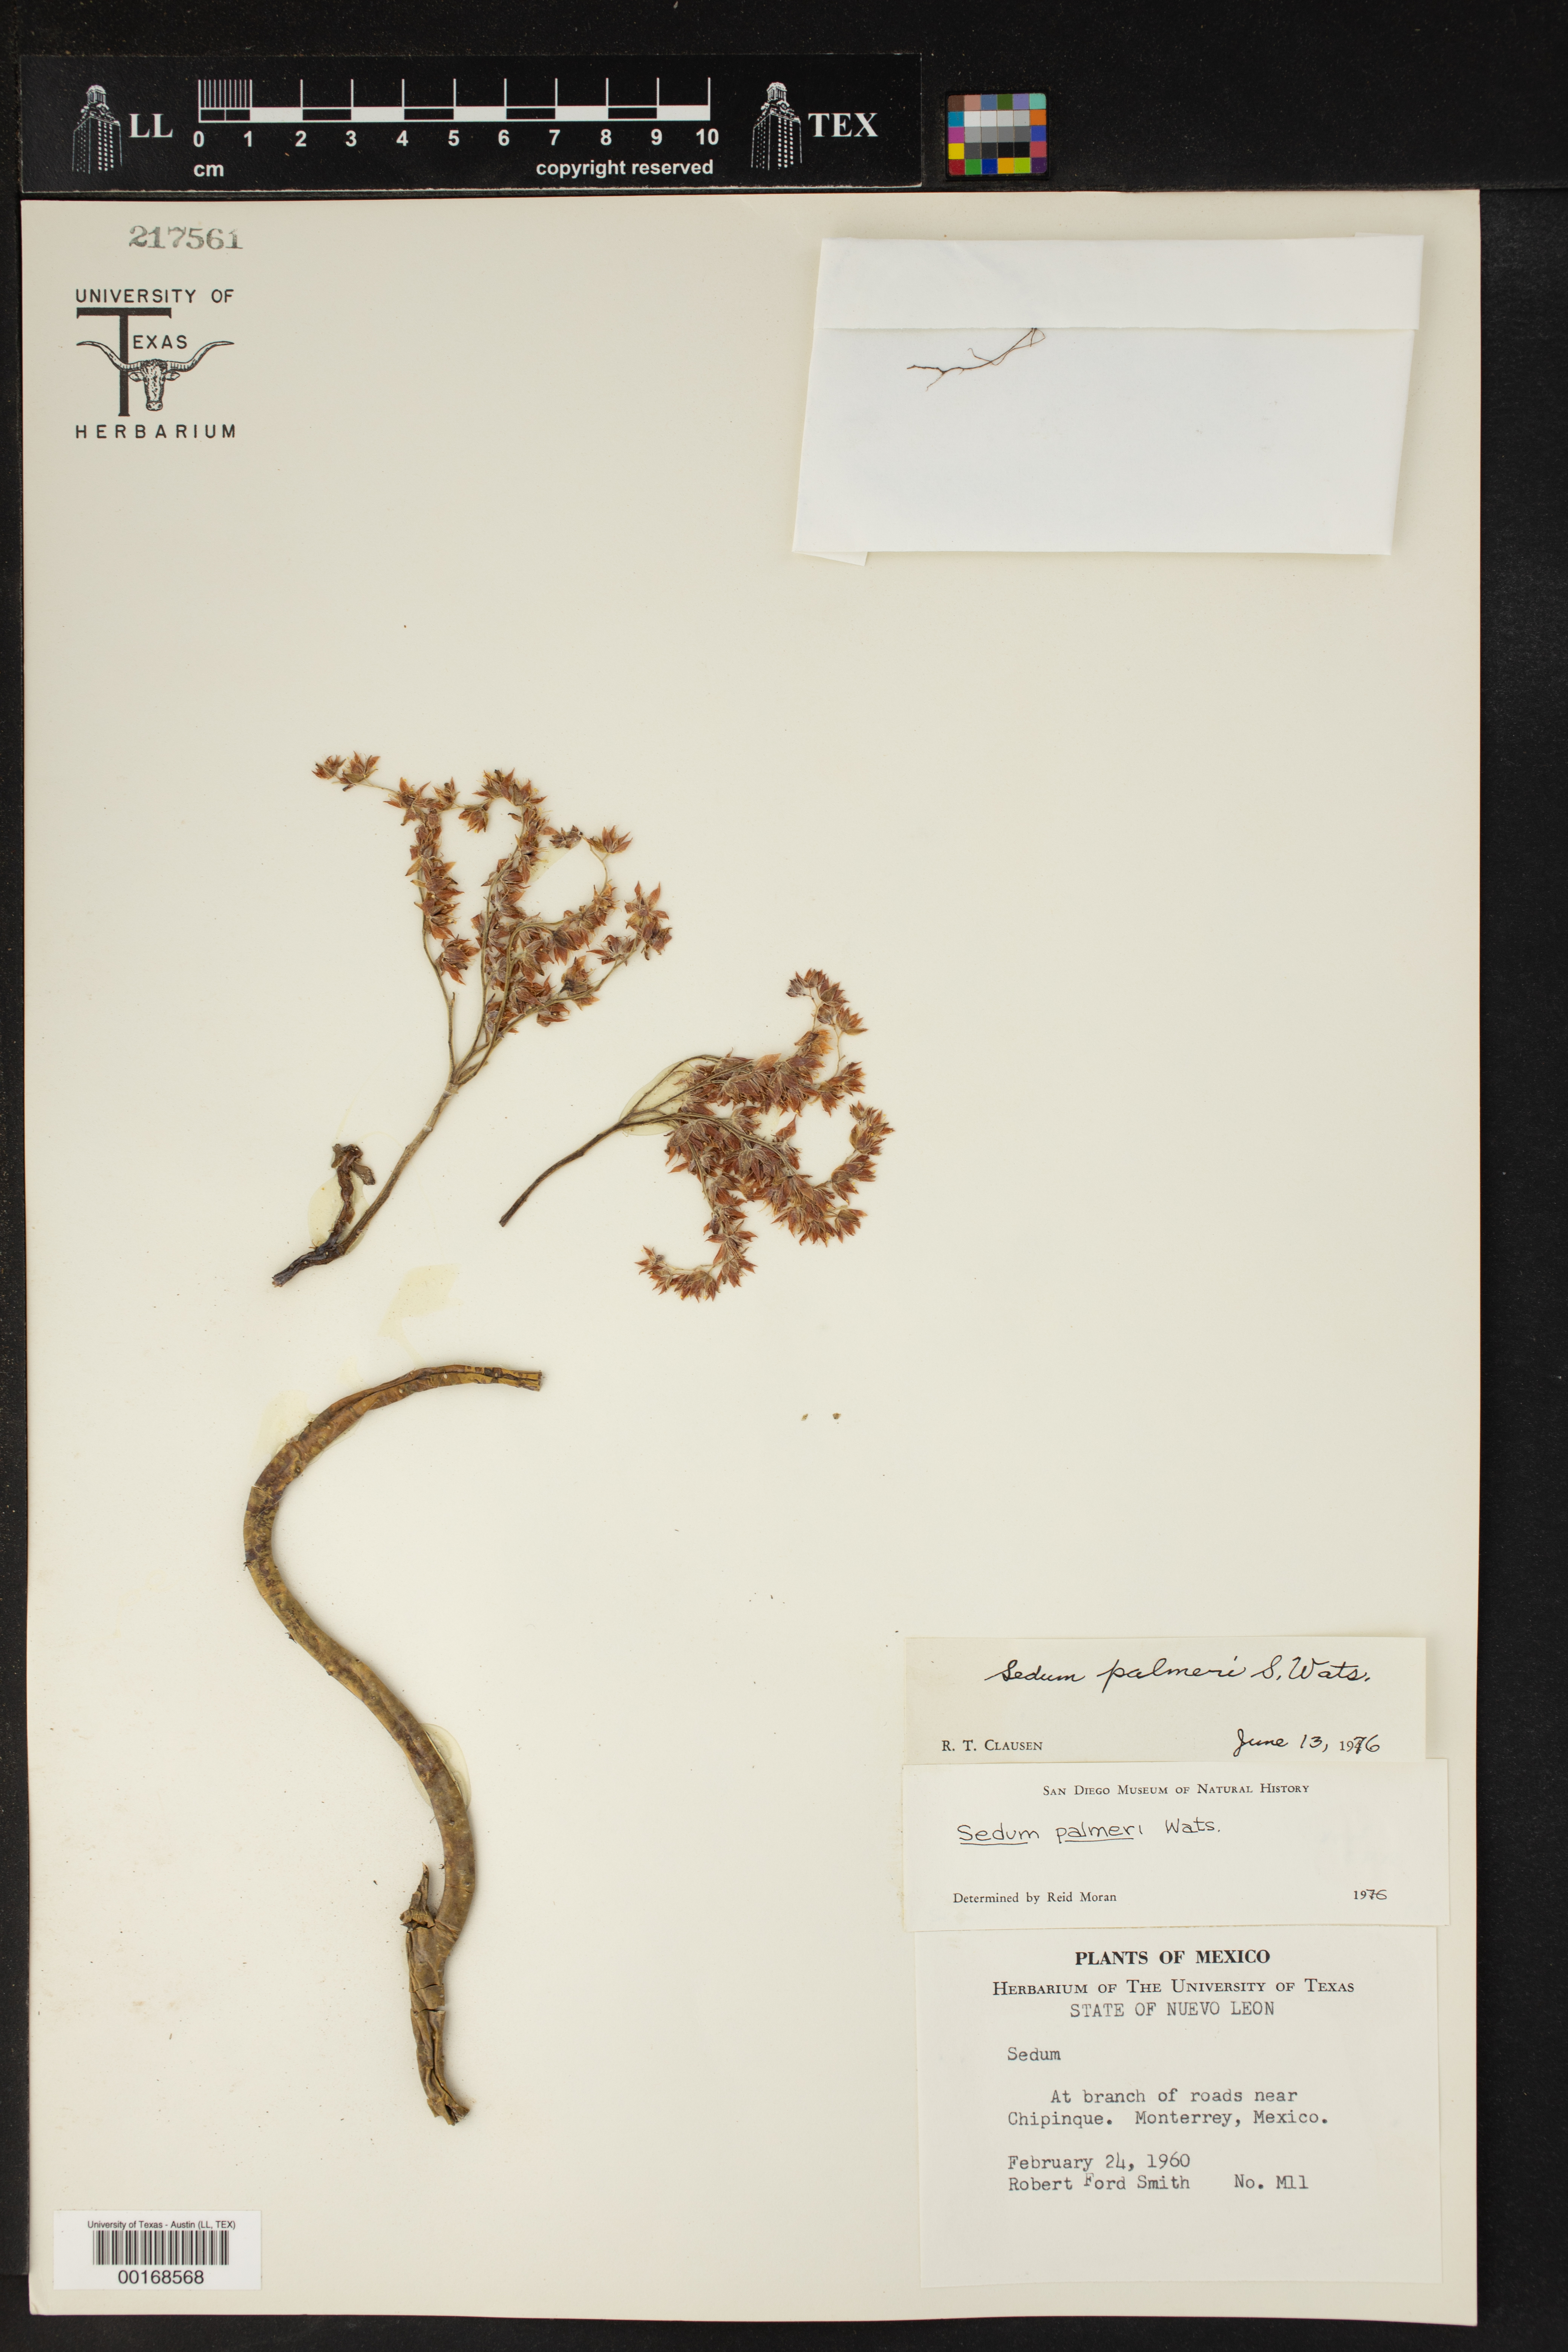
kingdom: Plantae
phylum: Tracheophyta
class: Magnoliopsida
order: Saxifragales
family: Crassulaceae
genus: Sedum
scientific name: Sedum palmeri
